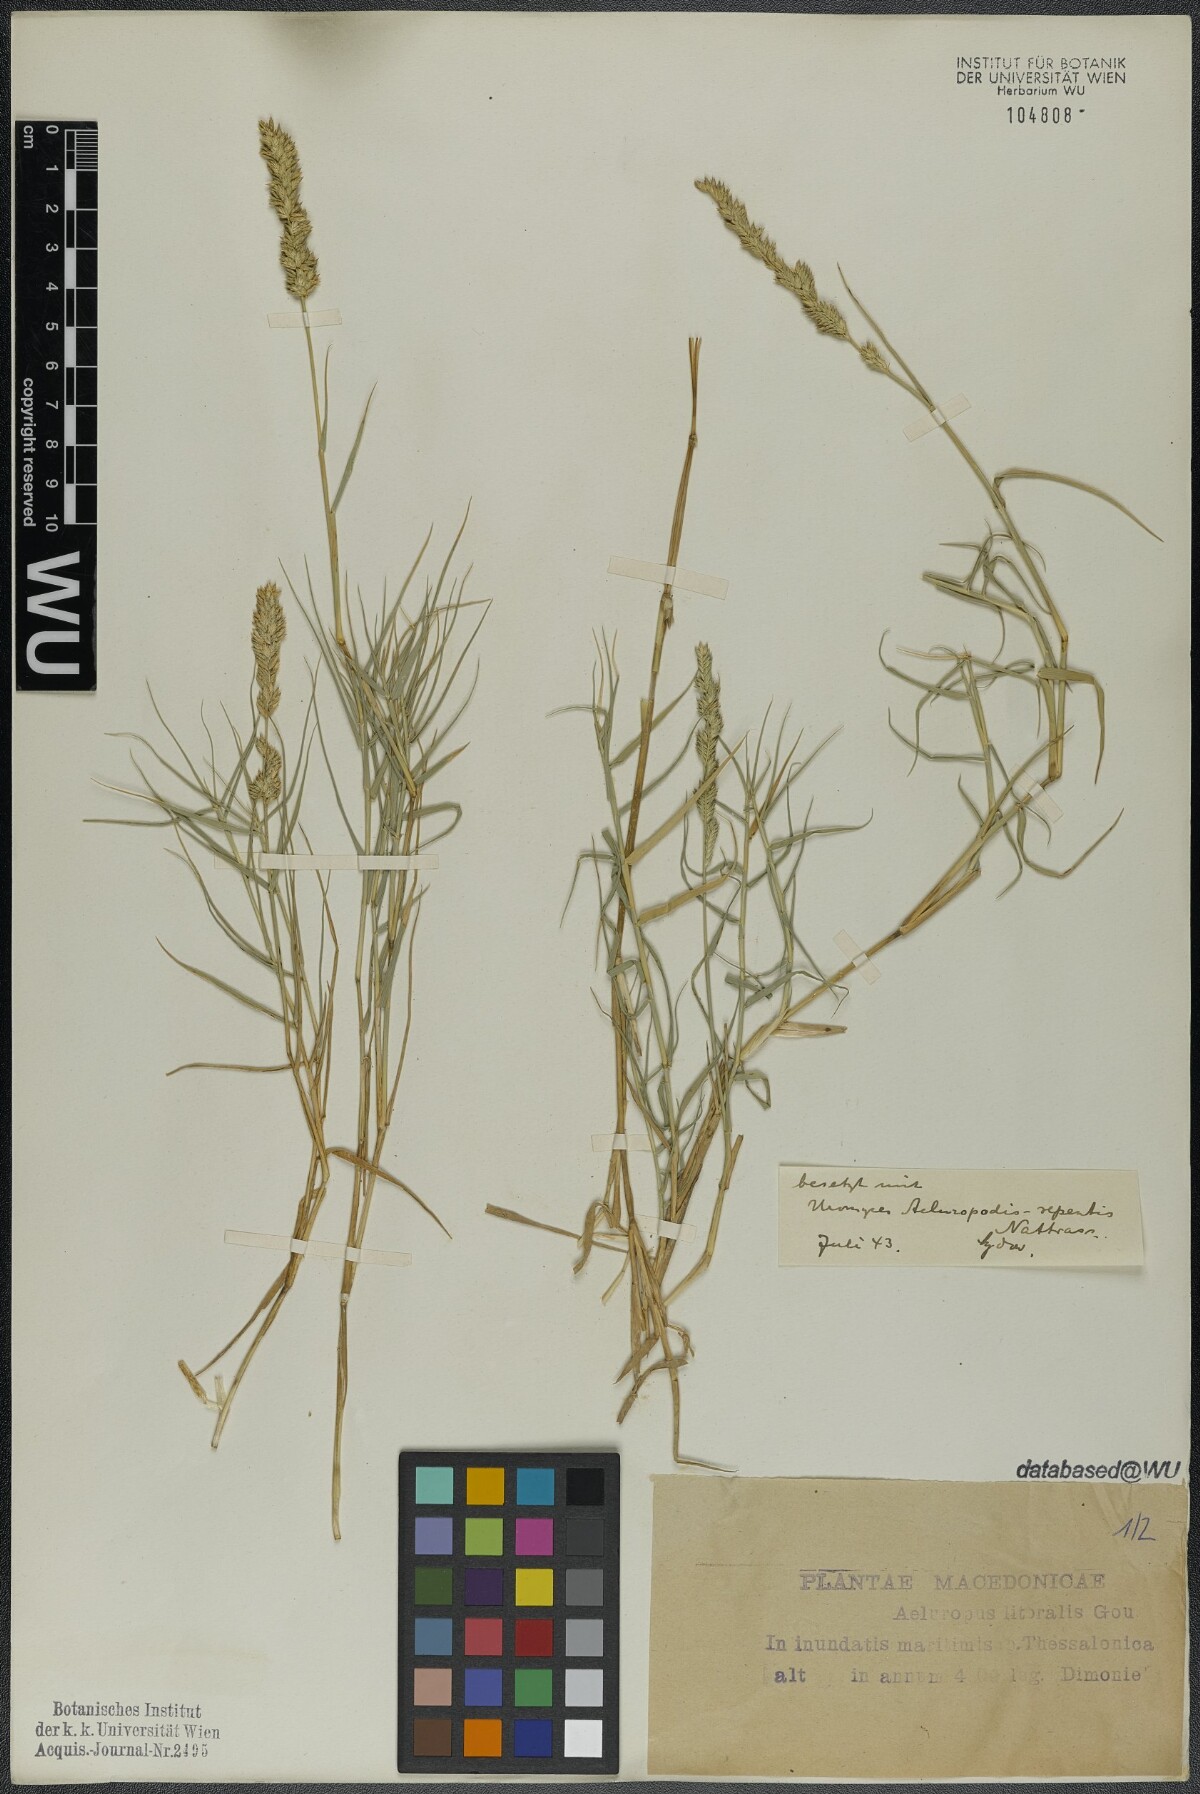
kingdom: Plantae
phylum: Tracheophyta
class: Liliopsida
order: Poales
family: Poaceae
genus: Aeluropus
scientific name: Aeluropus littoralis
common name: Indian walnut
